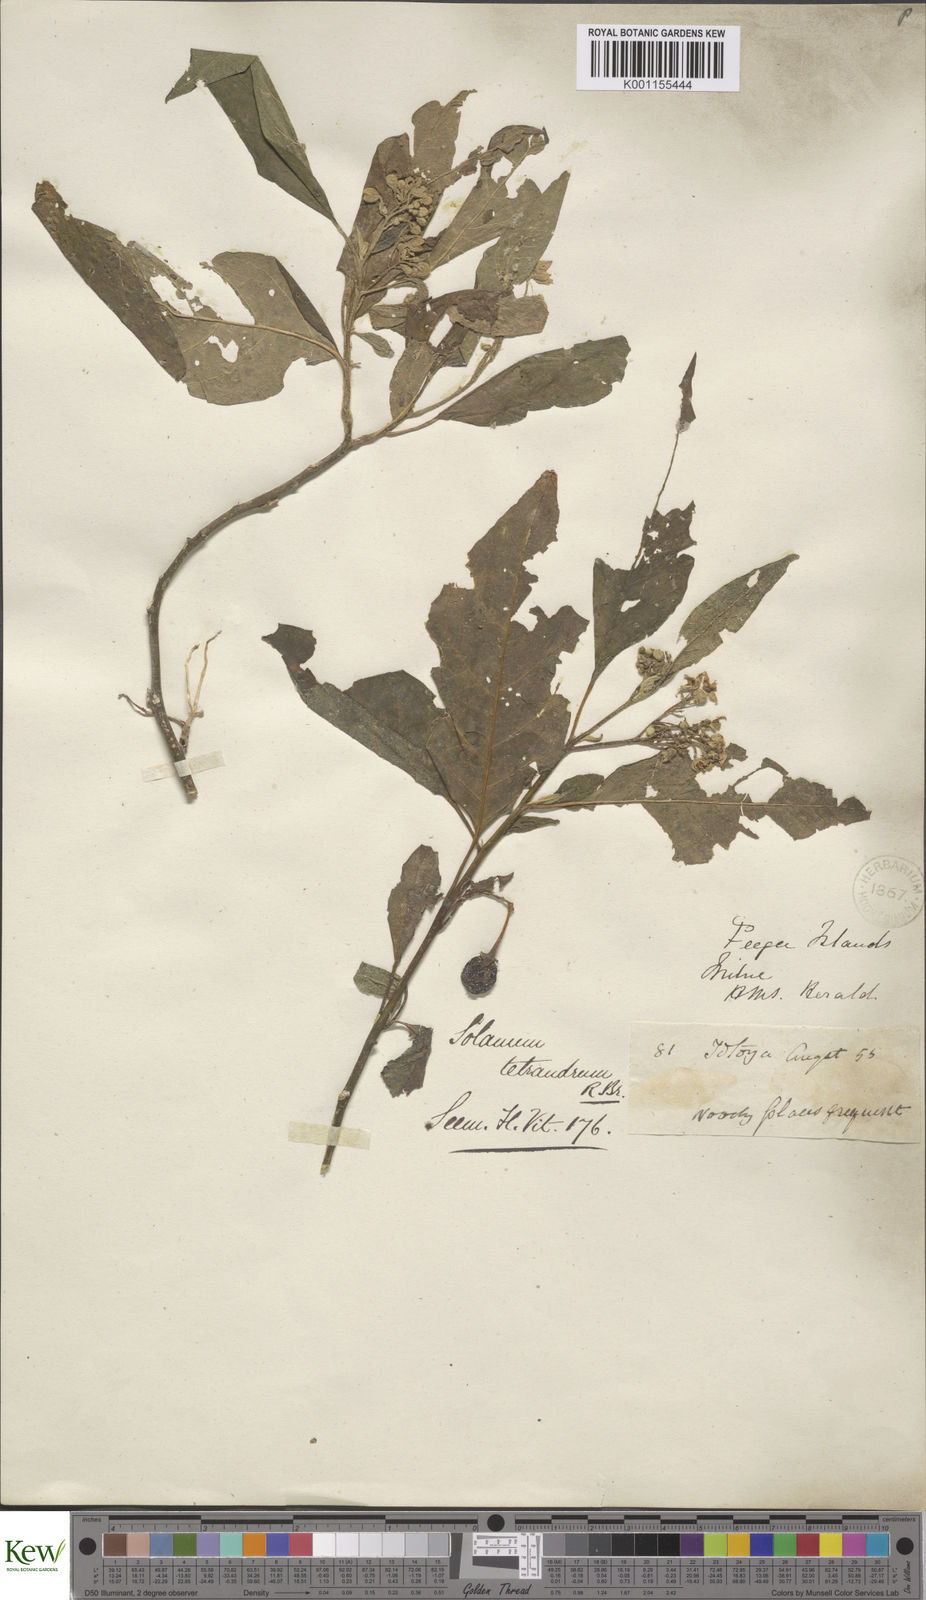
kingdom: Plantae
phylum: Tracheophyta
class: Magnoliopsida
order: Solanales
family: Solanaceae
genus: Solanum
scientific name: Solanum inamoenum
